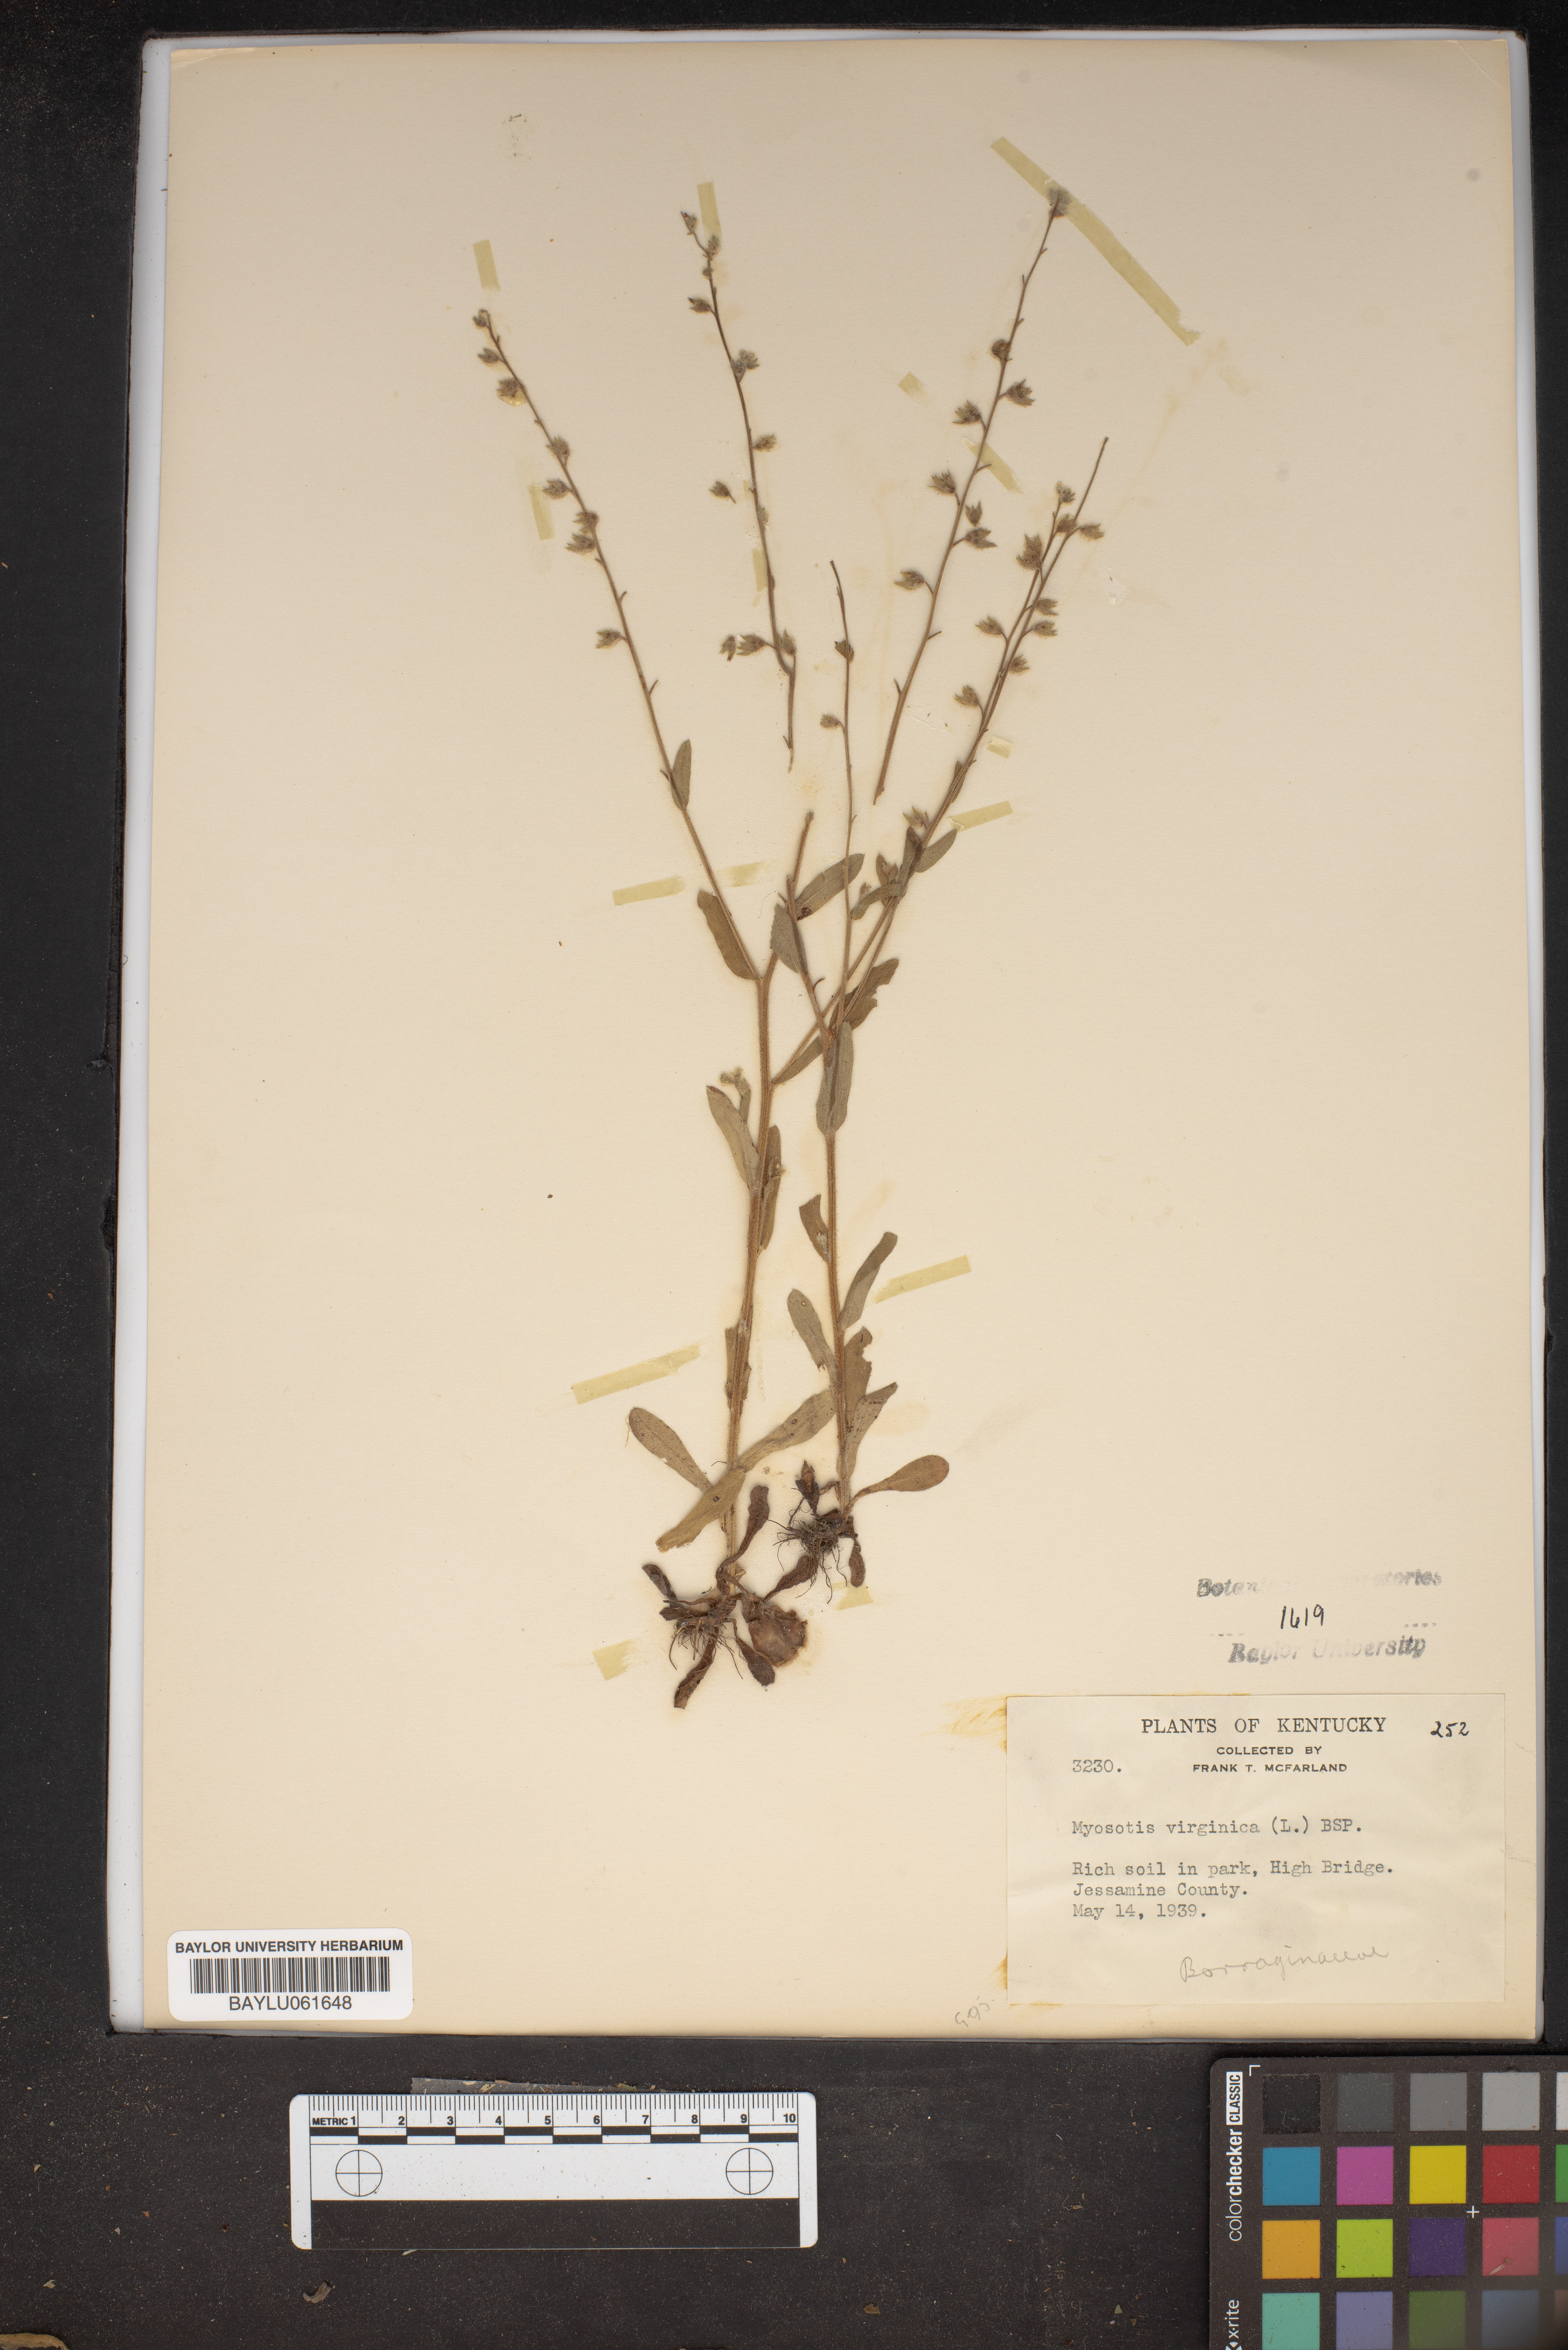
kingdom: Plantae
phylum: Tracheophyta
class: Magnoliopsida
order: Boraginales
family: Boraginaceae
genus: Myosotis
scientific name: Myosotis virginica
